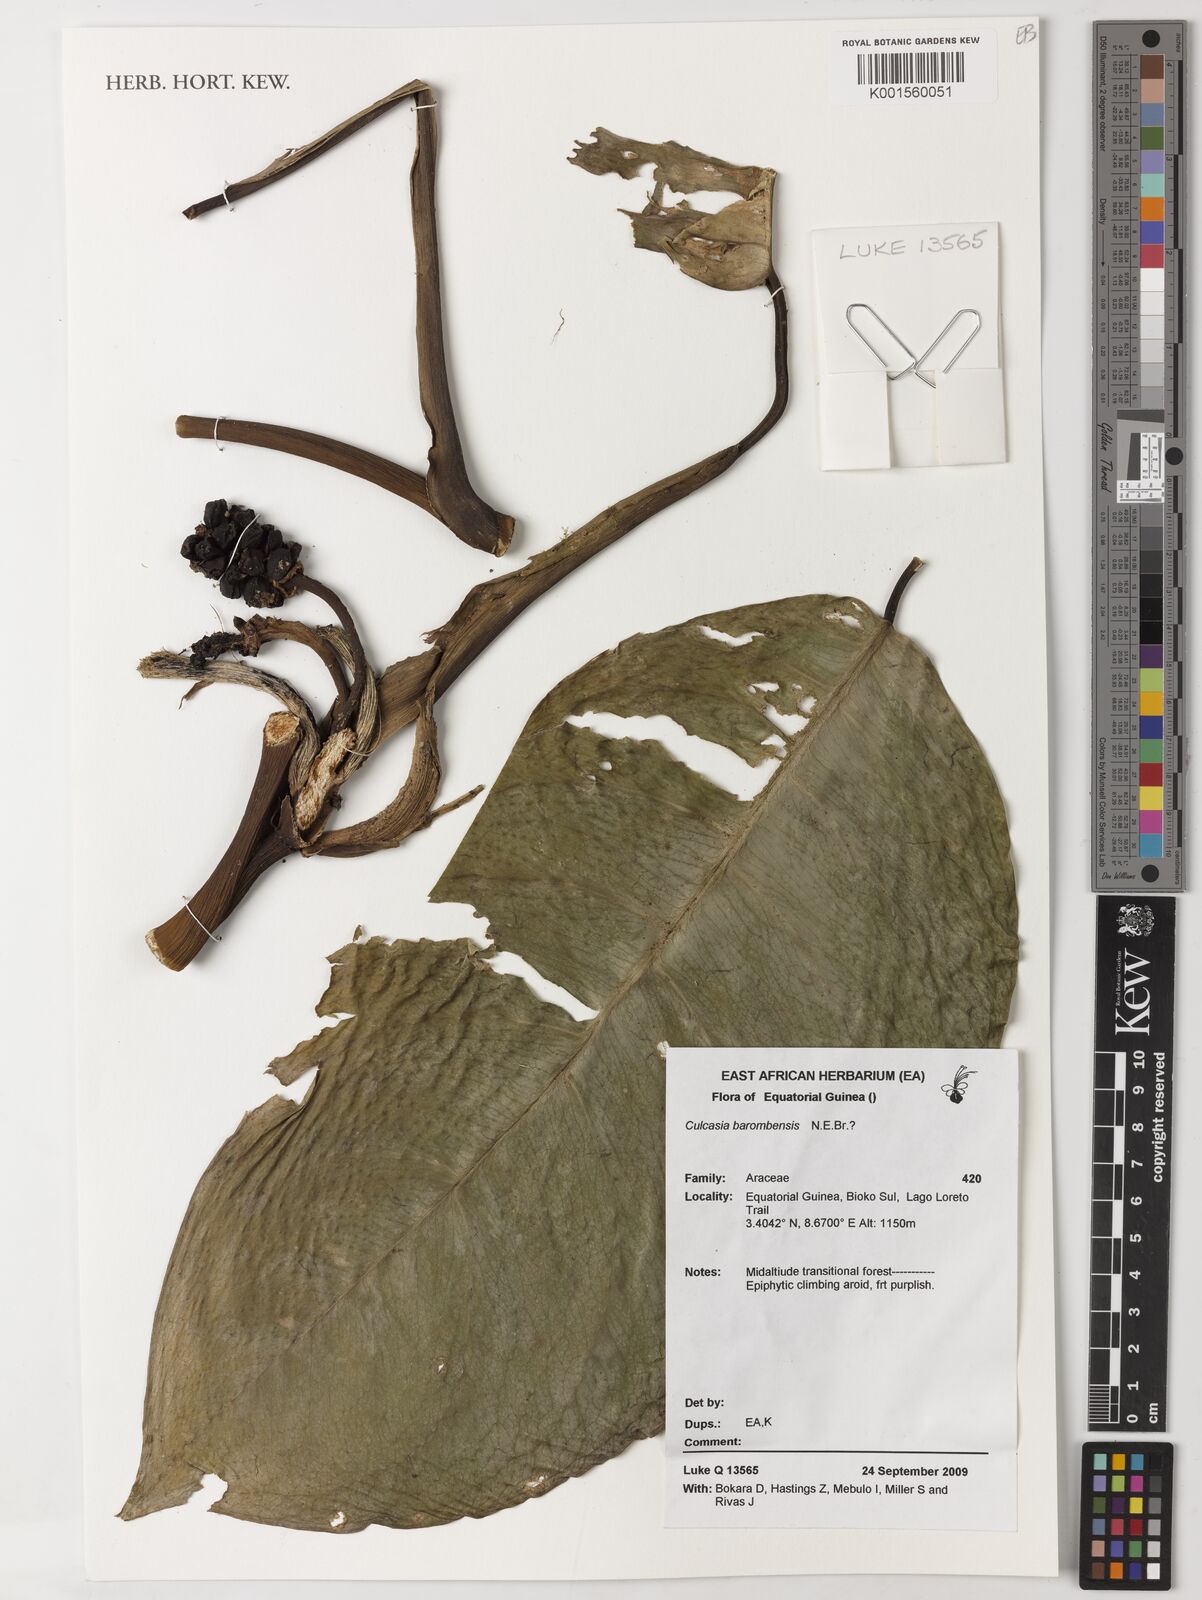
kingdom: Plantae
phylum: Tracheophyta
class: Liliopsida
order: Alismatales
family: Araceae
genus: Culcasia
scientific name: Culcasia angolensis
